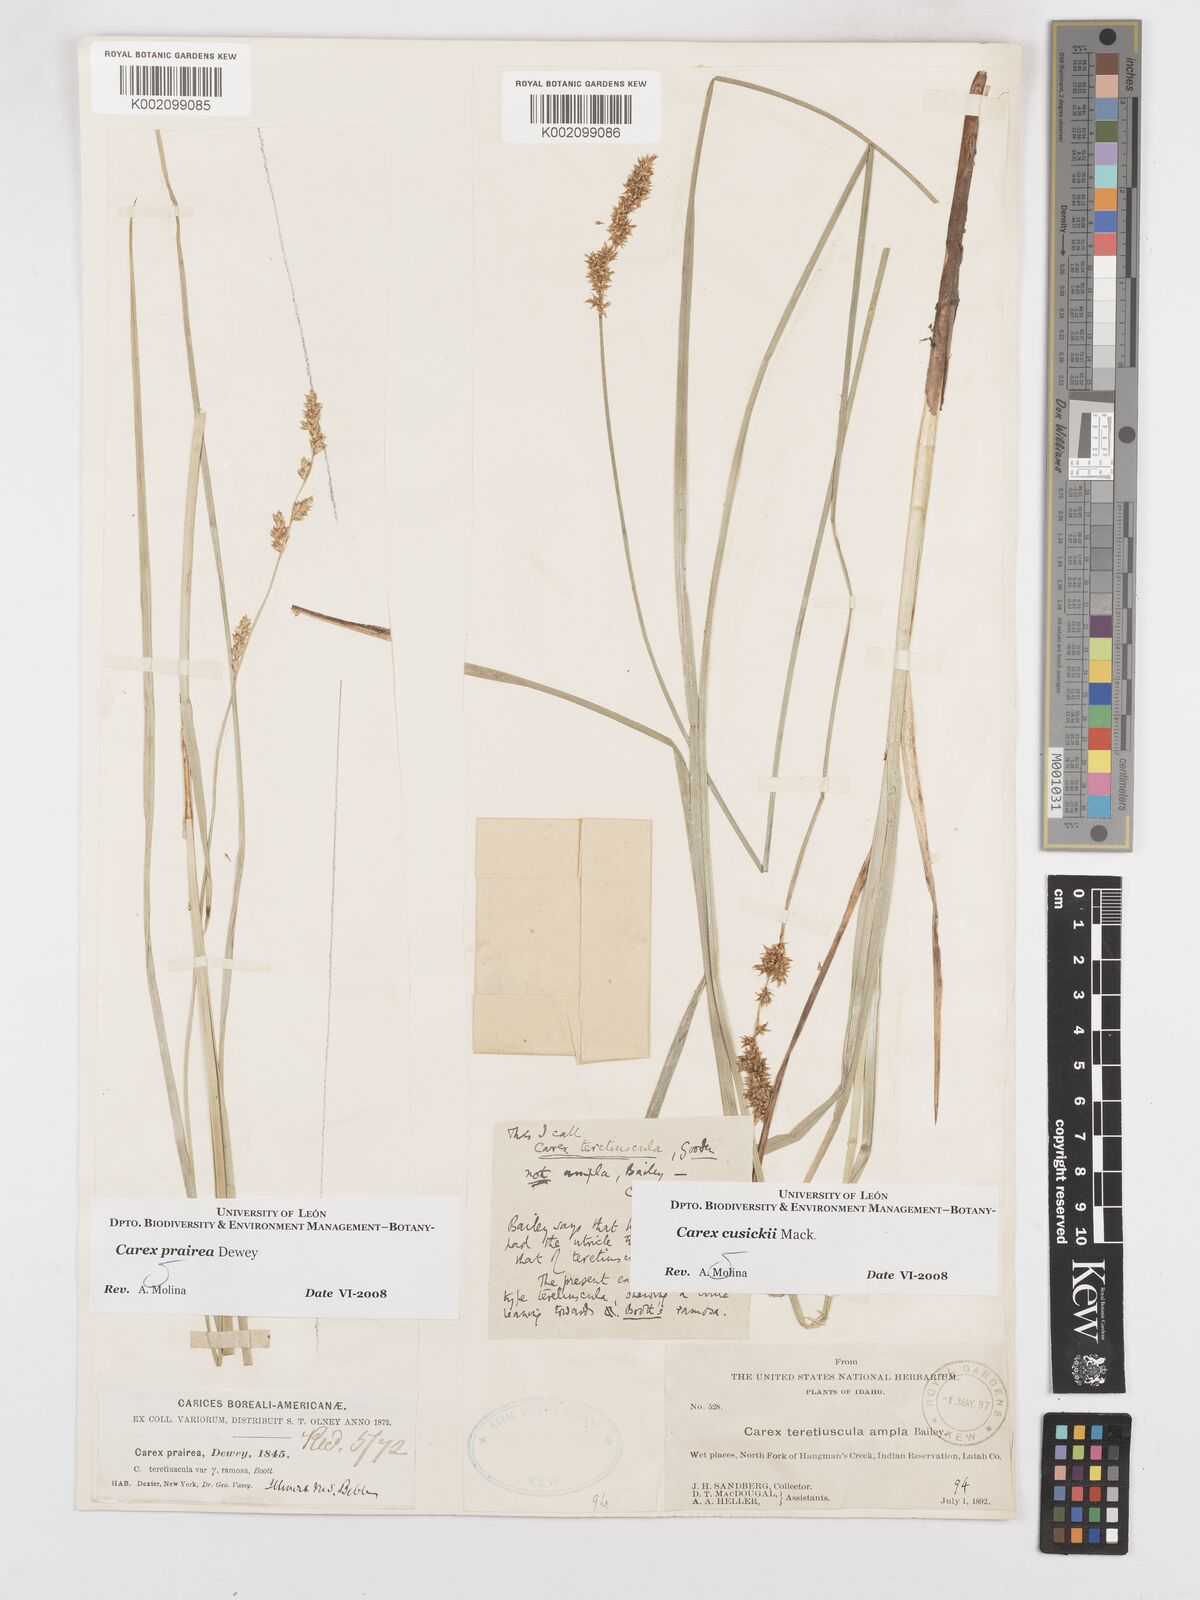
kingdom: Plantae
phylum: Tracheophyta
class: Liliopsida
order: Poales
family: Cyperaceae
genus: Carex
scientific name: Carex prairea
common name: Prairie sedge
